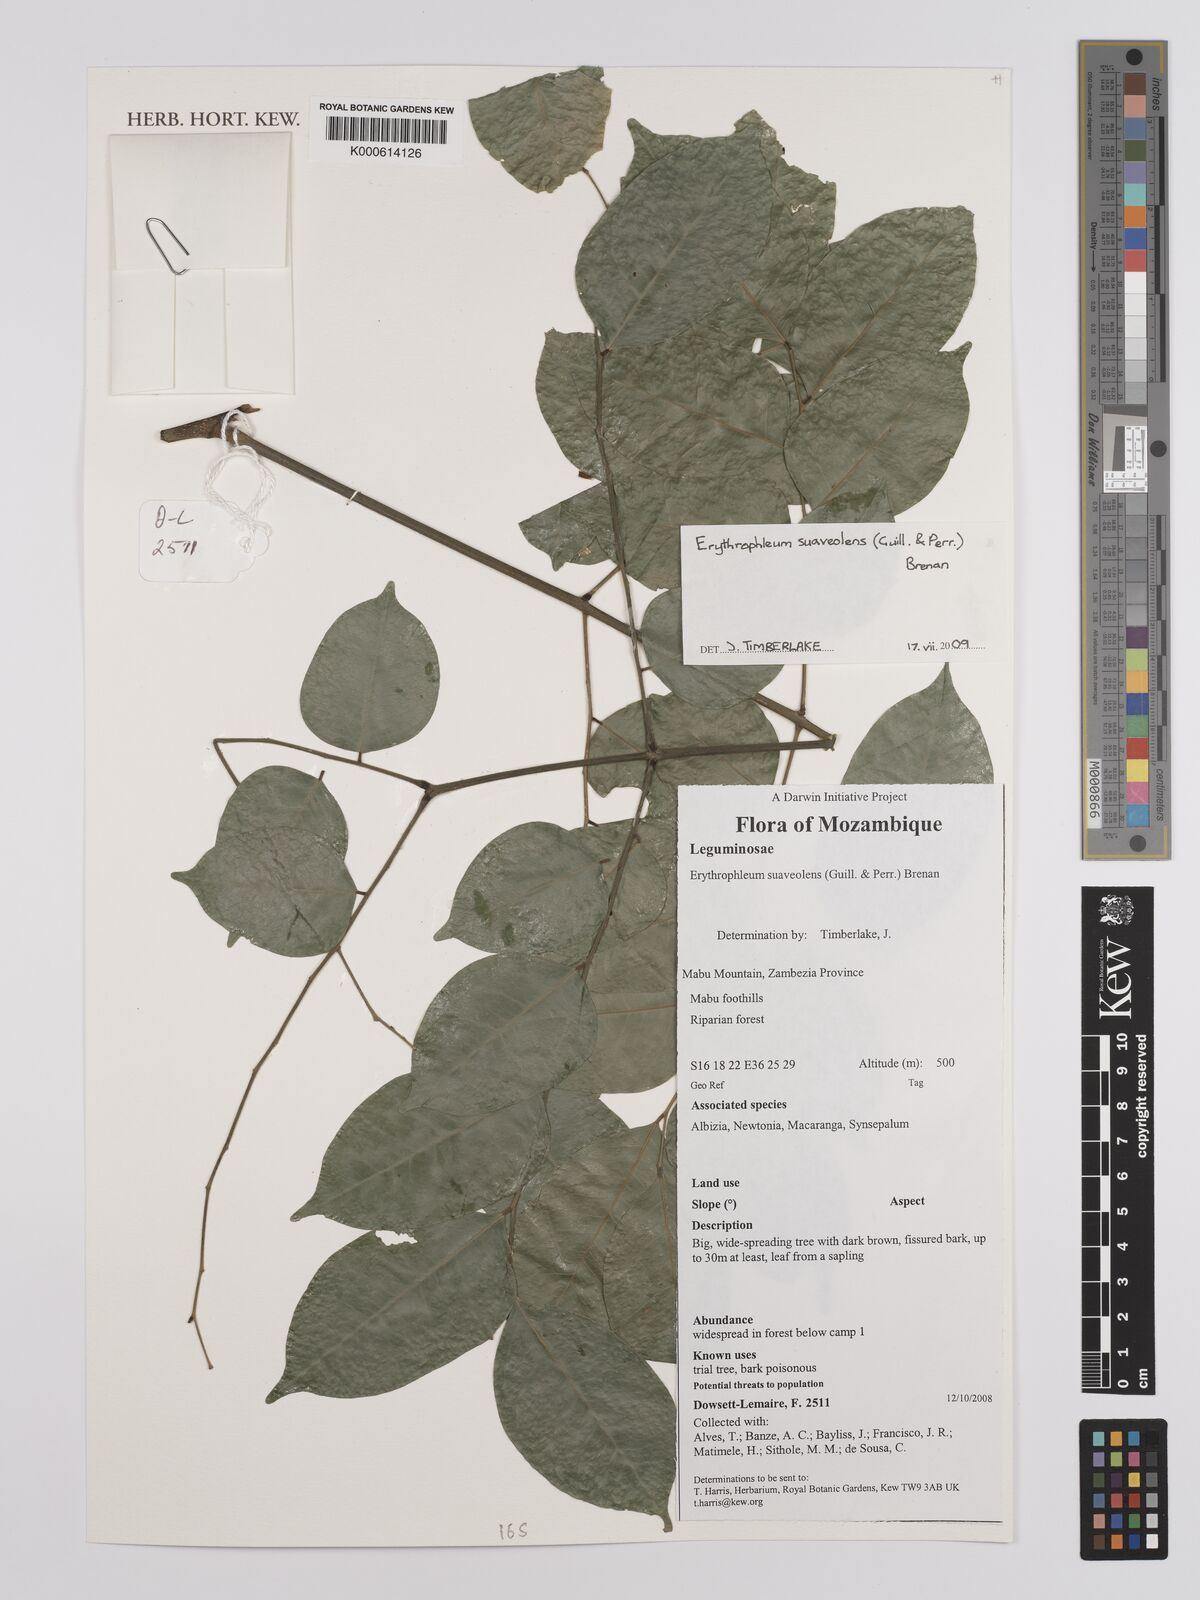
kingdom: Plantae
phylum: Tracheophyta
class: Magnoliopsida
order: Fabales
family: Fabaceae
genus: Erythrophleum
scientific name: Erythrophleum suaveolens
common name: Ordeal tree
